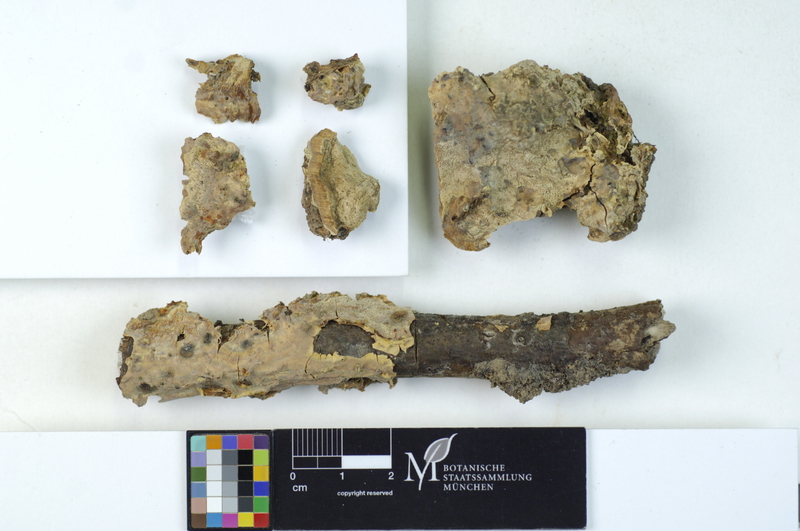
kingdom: Fungi
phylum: Basidiomycota
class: Agaricomycetes
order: Polyporales
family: Meruliaceae
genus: Physisporinus
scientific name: Physisporinus vitreus
